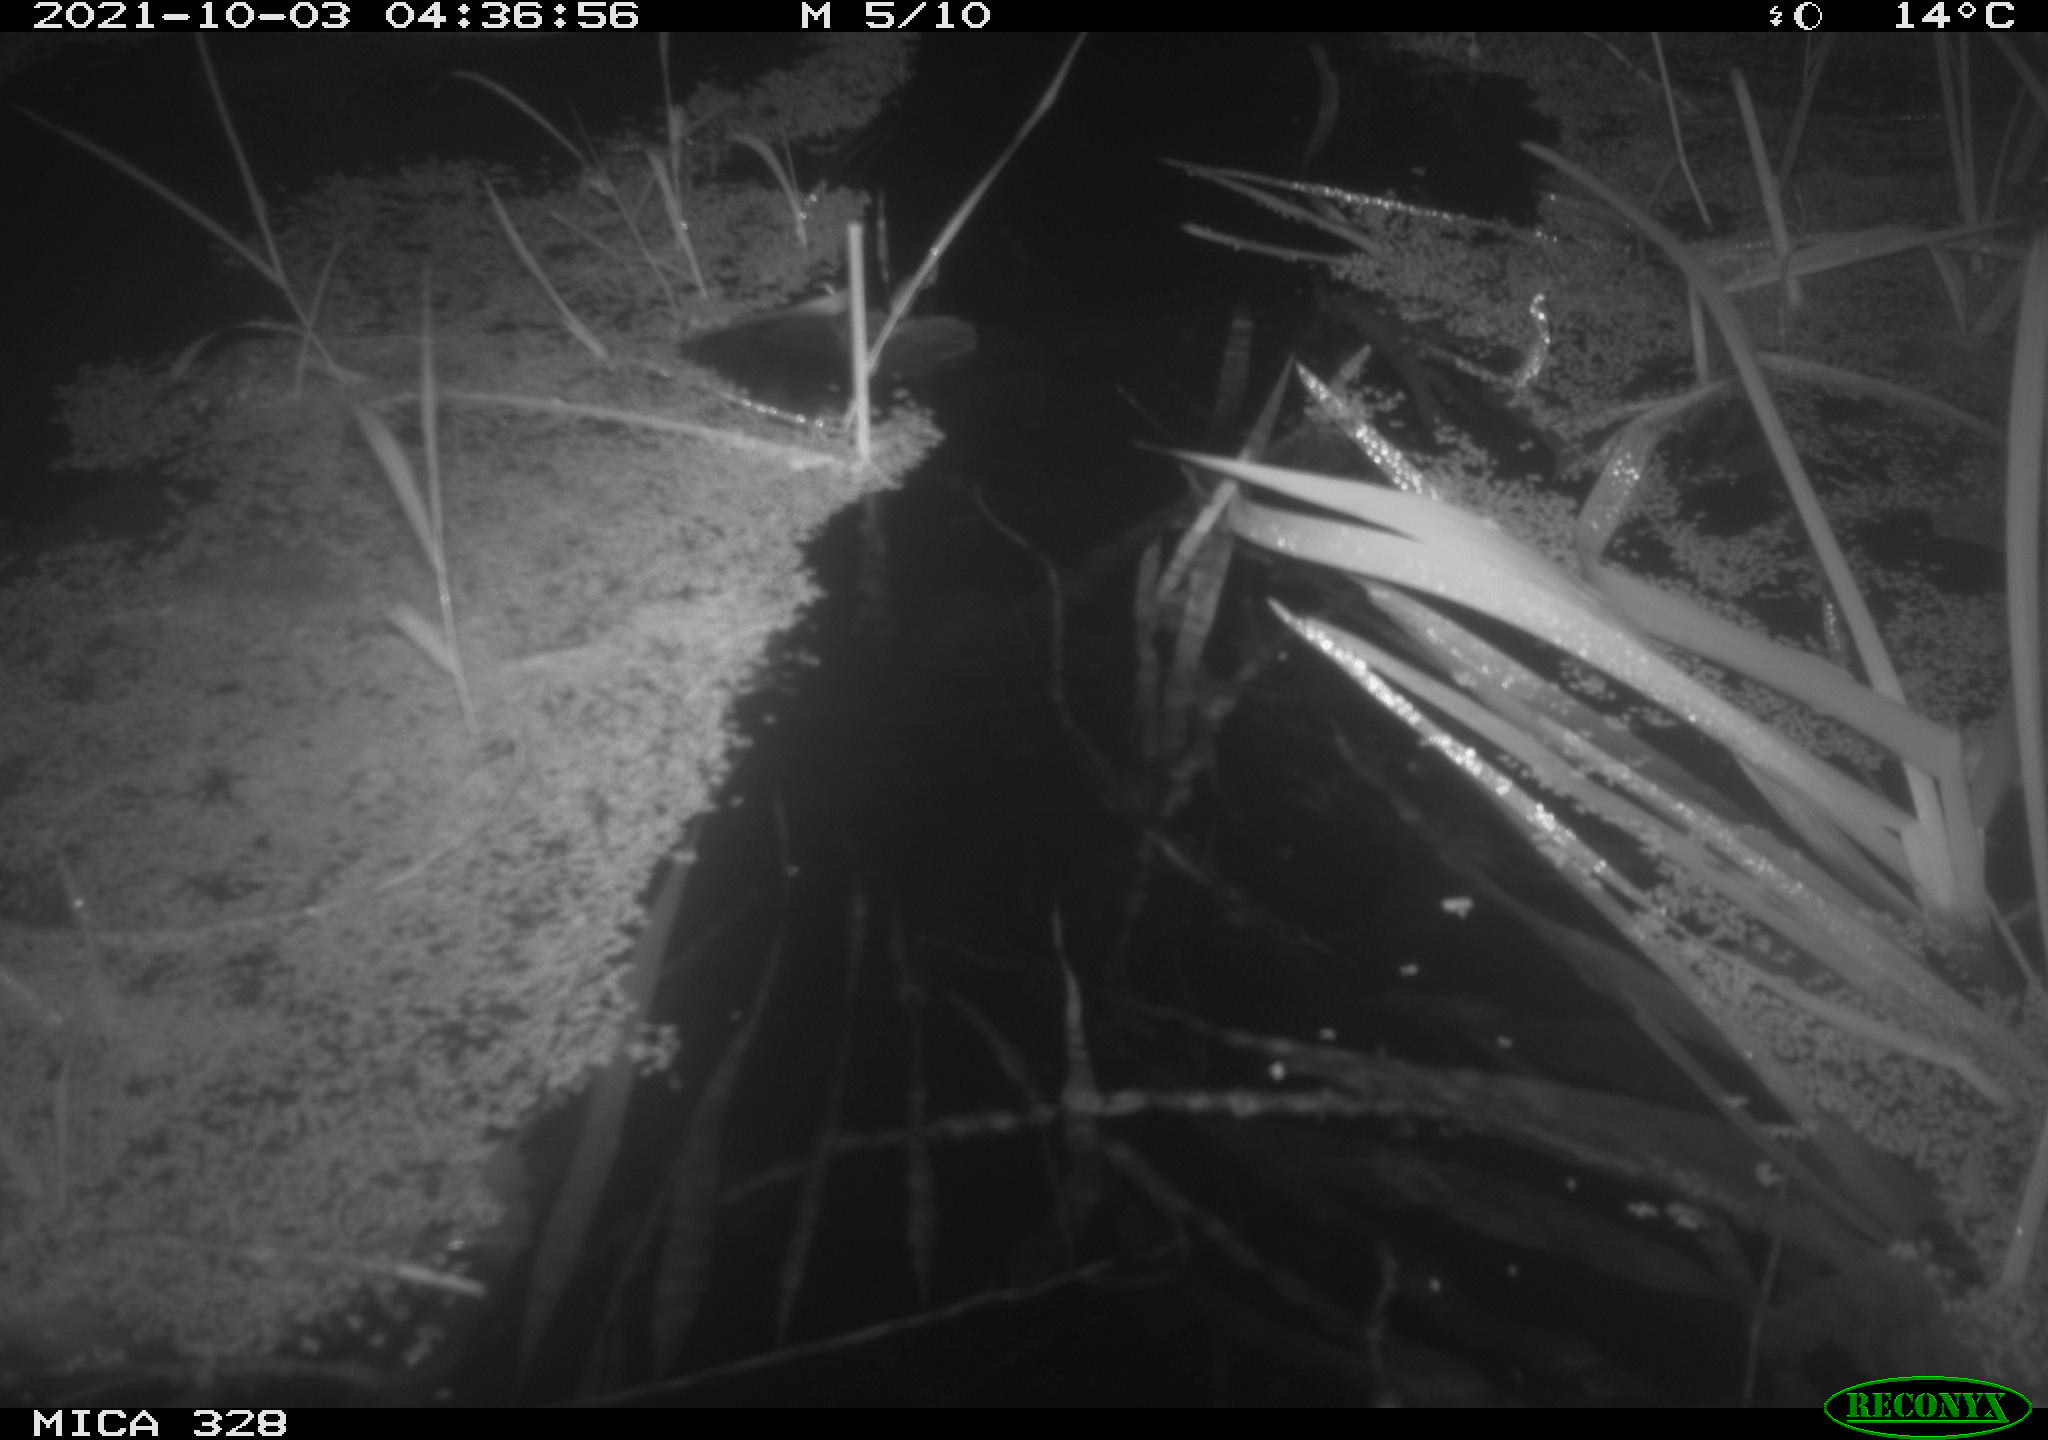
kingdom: Animalia
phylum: Chordata
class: Mammalia
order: Rodentia
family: Cricetidae
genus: Ondatra
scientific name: Ondatra zibethicus
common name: Muskrat
